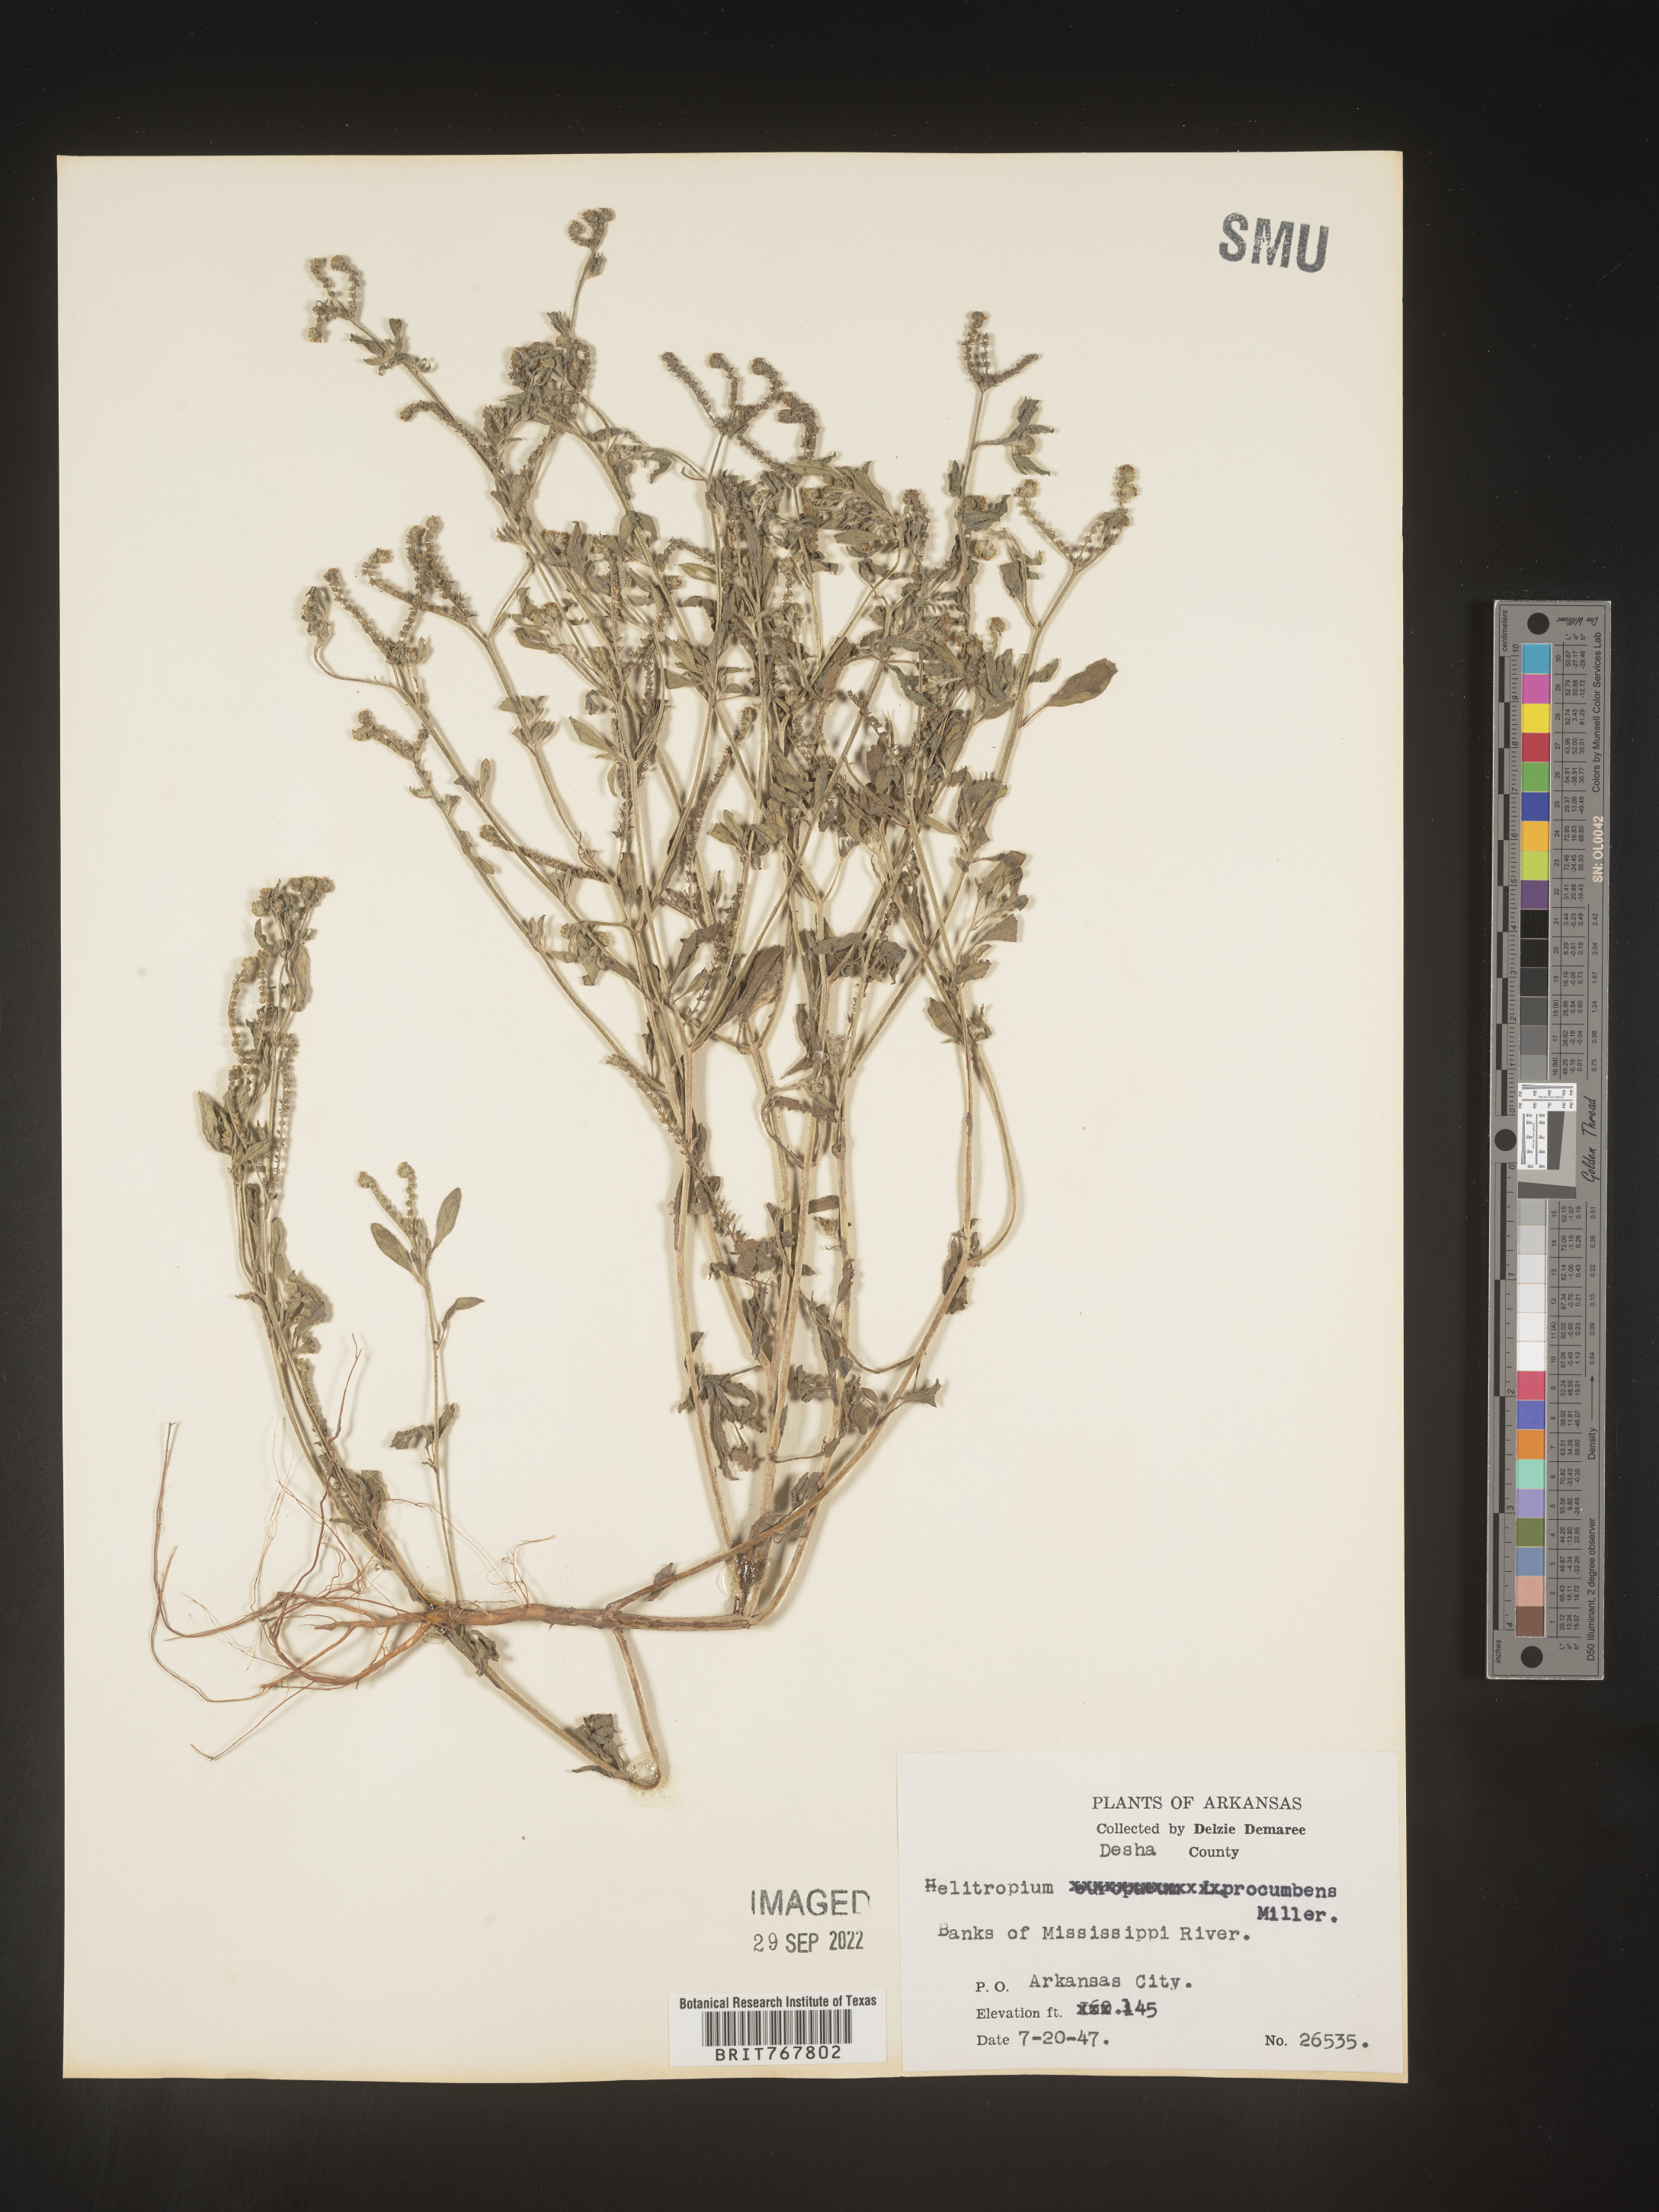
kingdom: Plantae
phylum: Tracheophyta
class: Magnoliopsida
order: Boraginales
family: Heliotropiaceae
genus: Heliotropium
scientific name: Heliotropium
